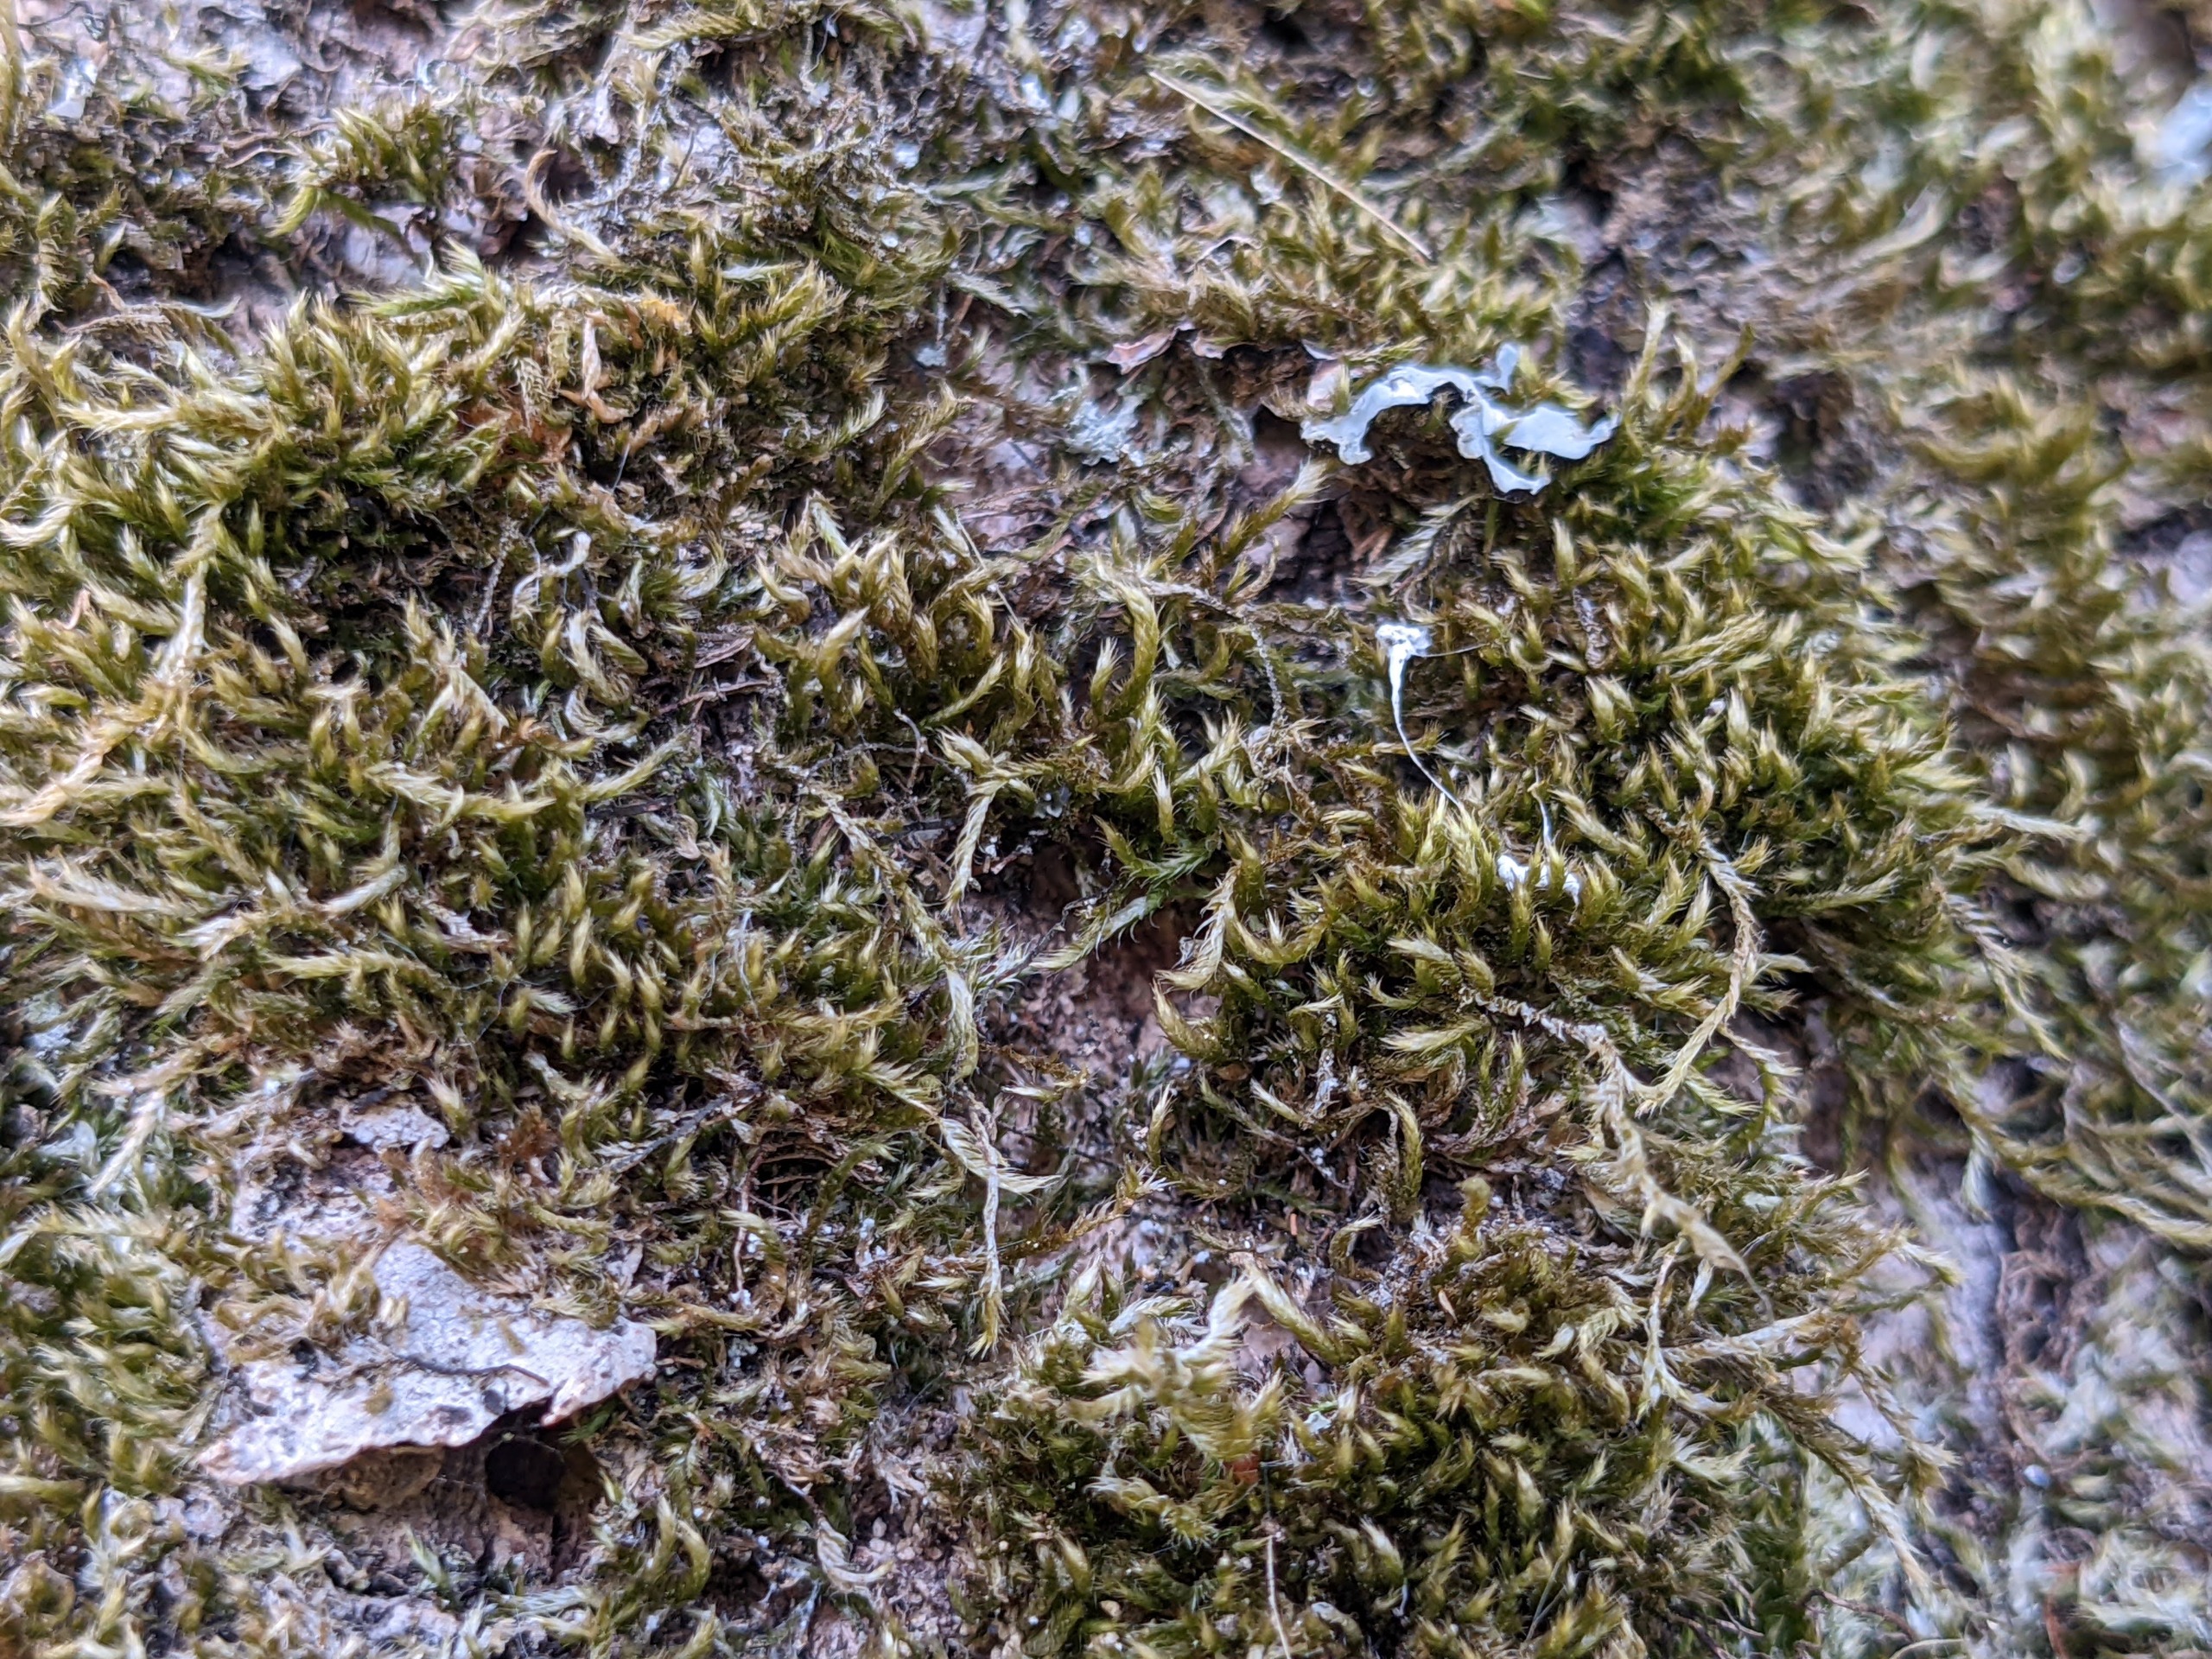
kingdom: Plantae
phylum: Bryophyta
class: Bryopsida
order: Hypnales
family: Hypnaceae
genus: Hypnum
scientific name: Hypnum resupinatum
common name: Ret cypresmos
